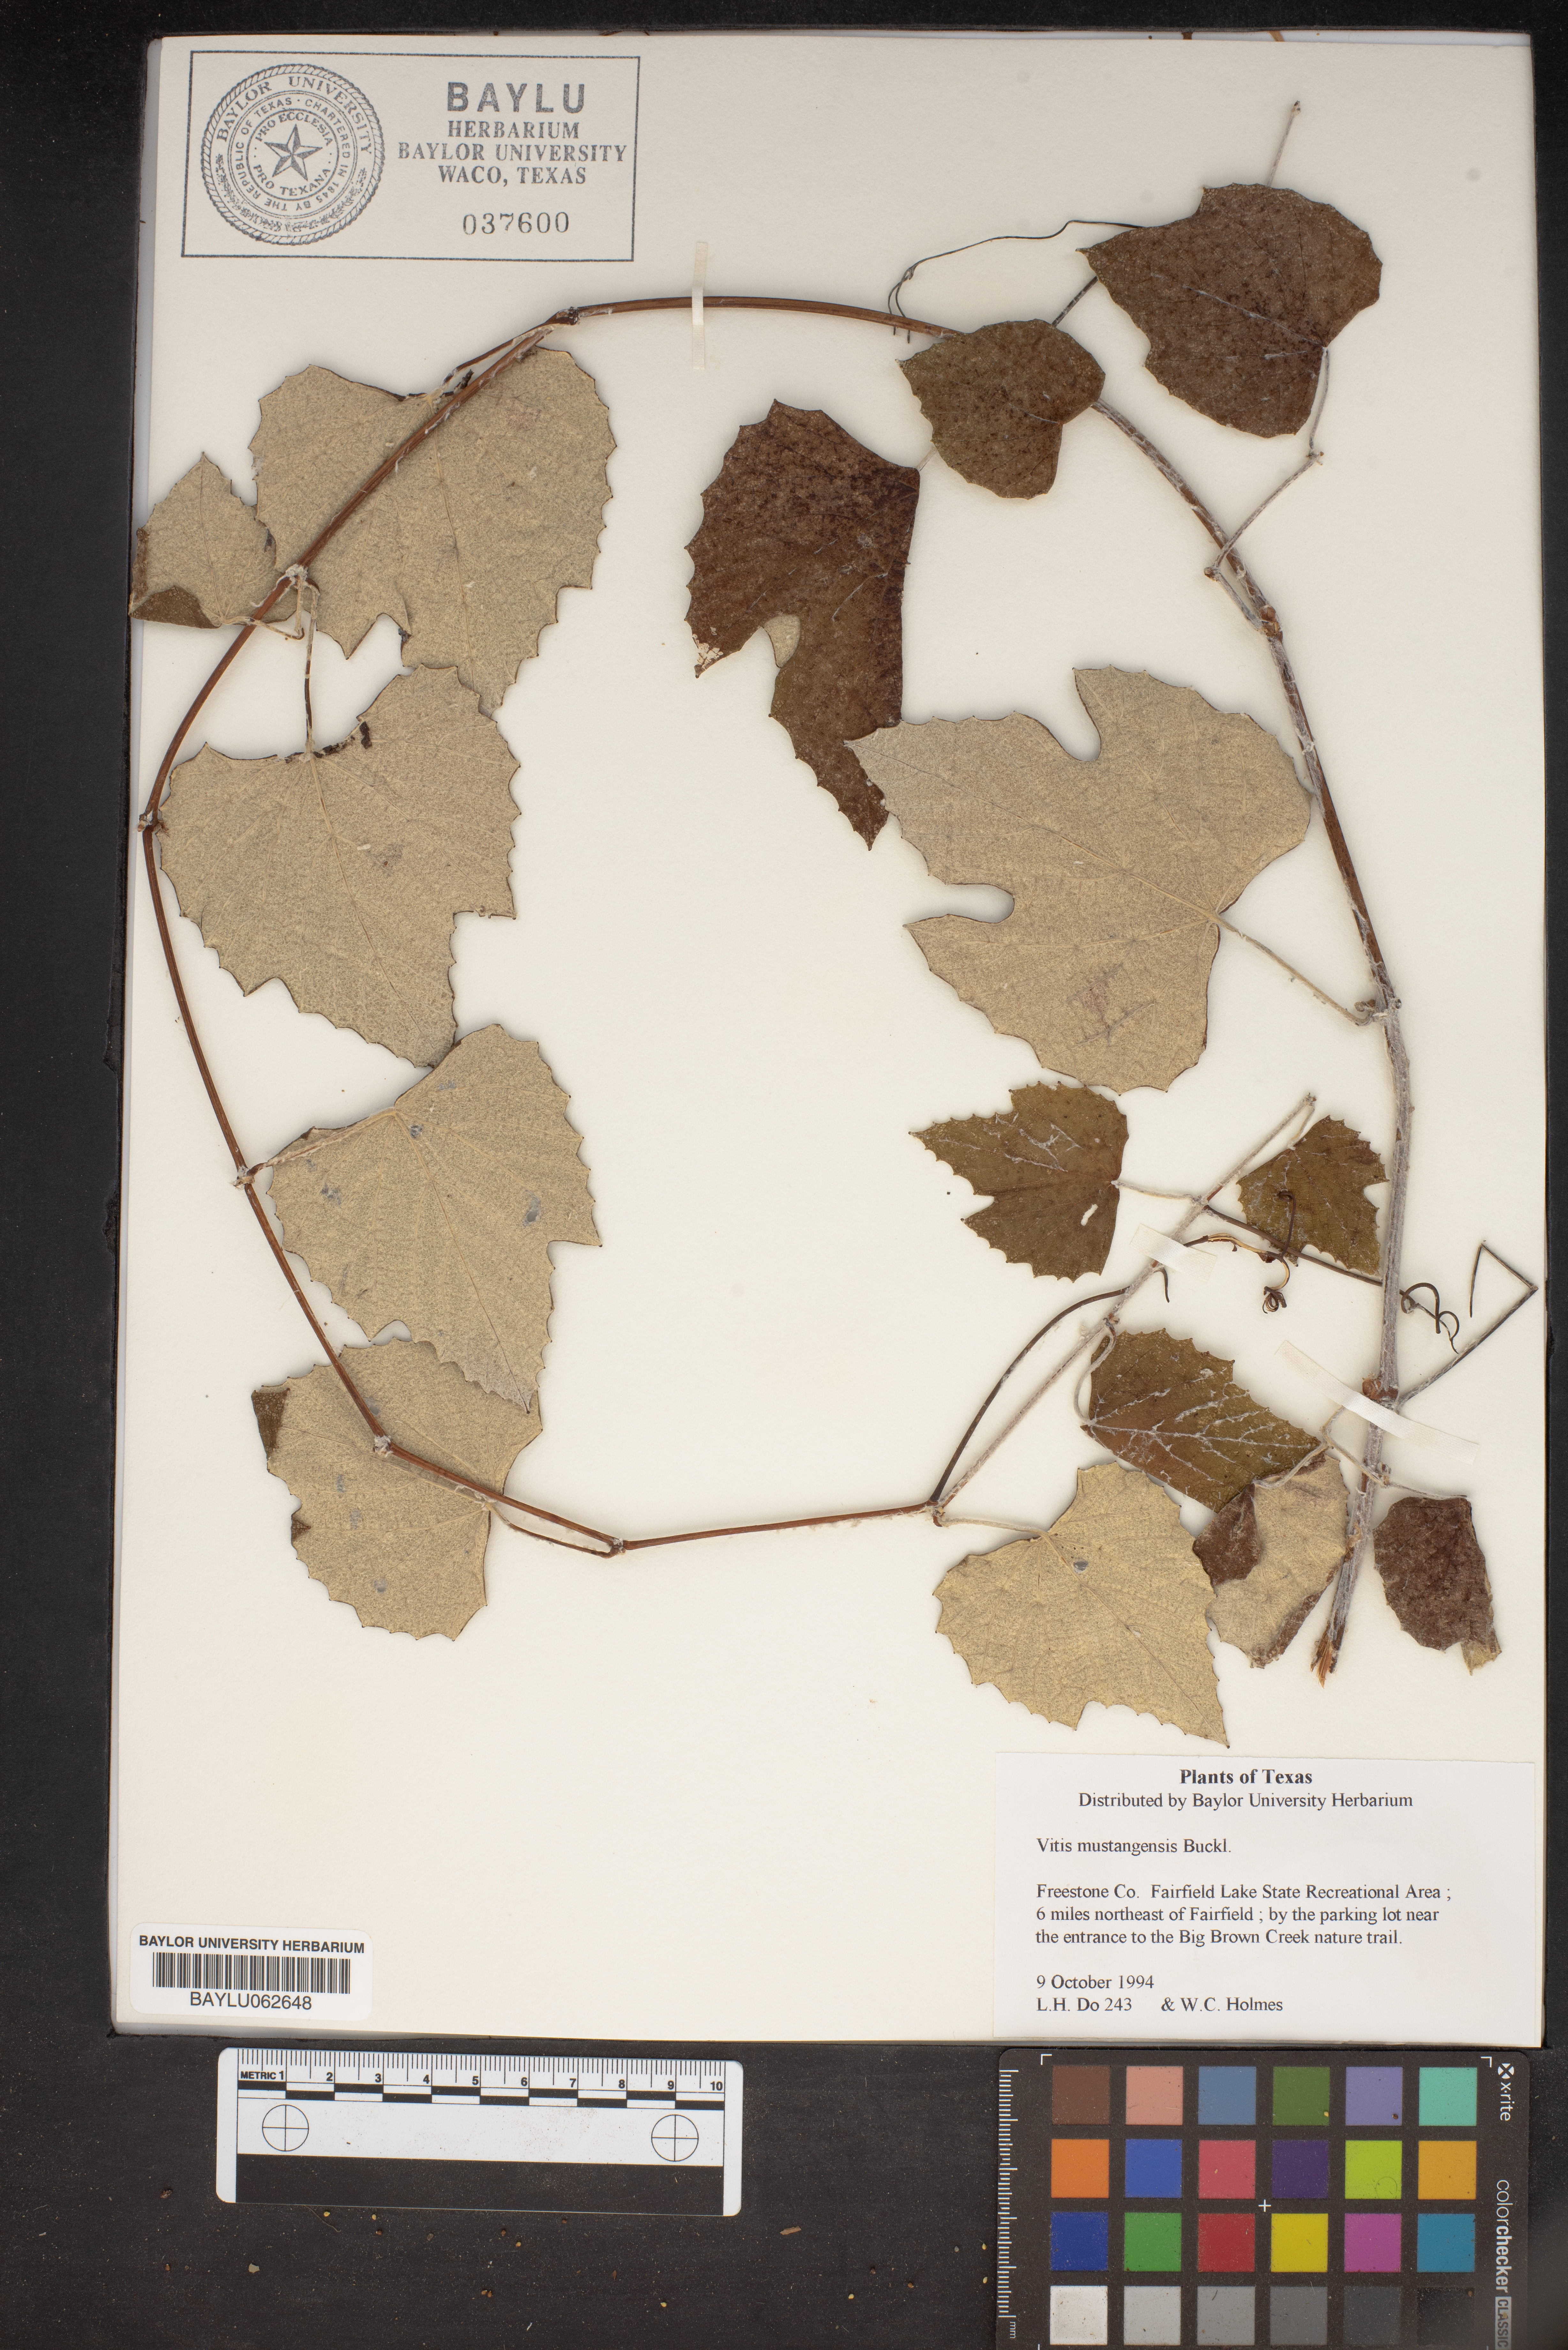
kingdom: Plantae
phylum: Tracheophyta
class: Magnoliopsida
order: Vitales
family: Vitaceae
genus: Vitis
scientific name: Vitis mustangensis
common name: Mustang grape
